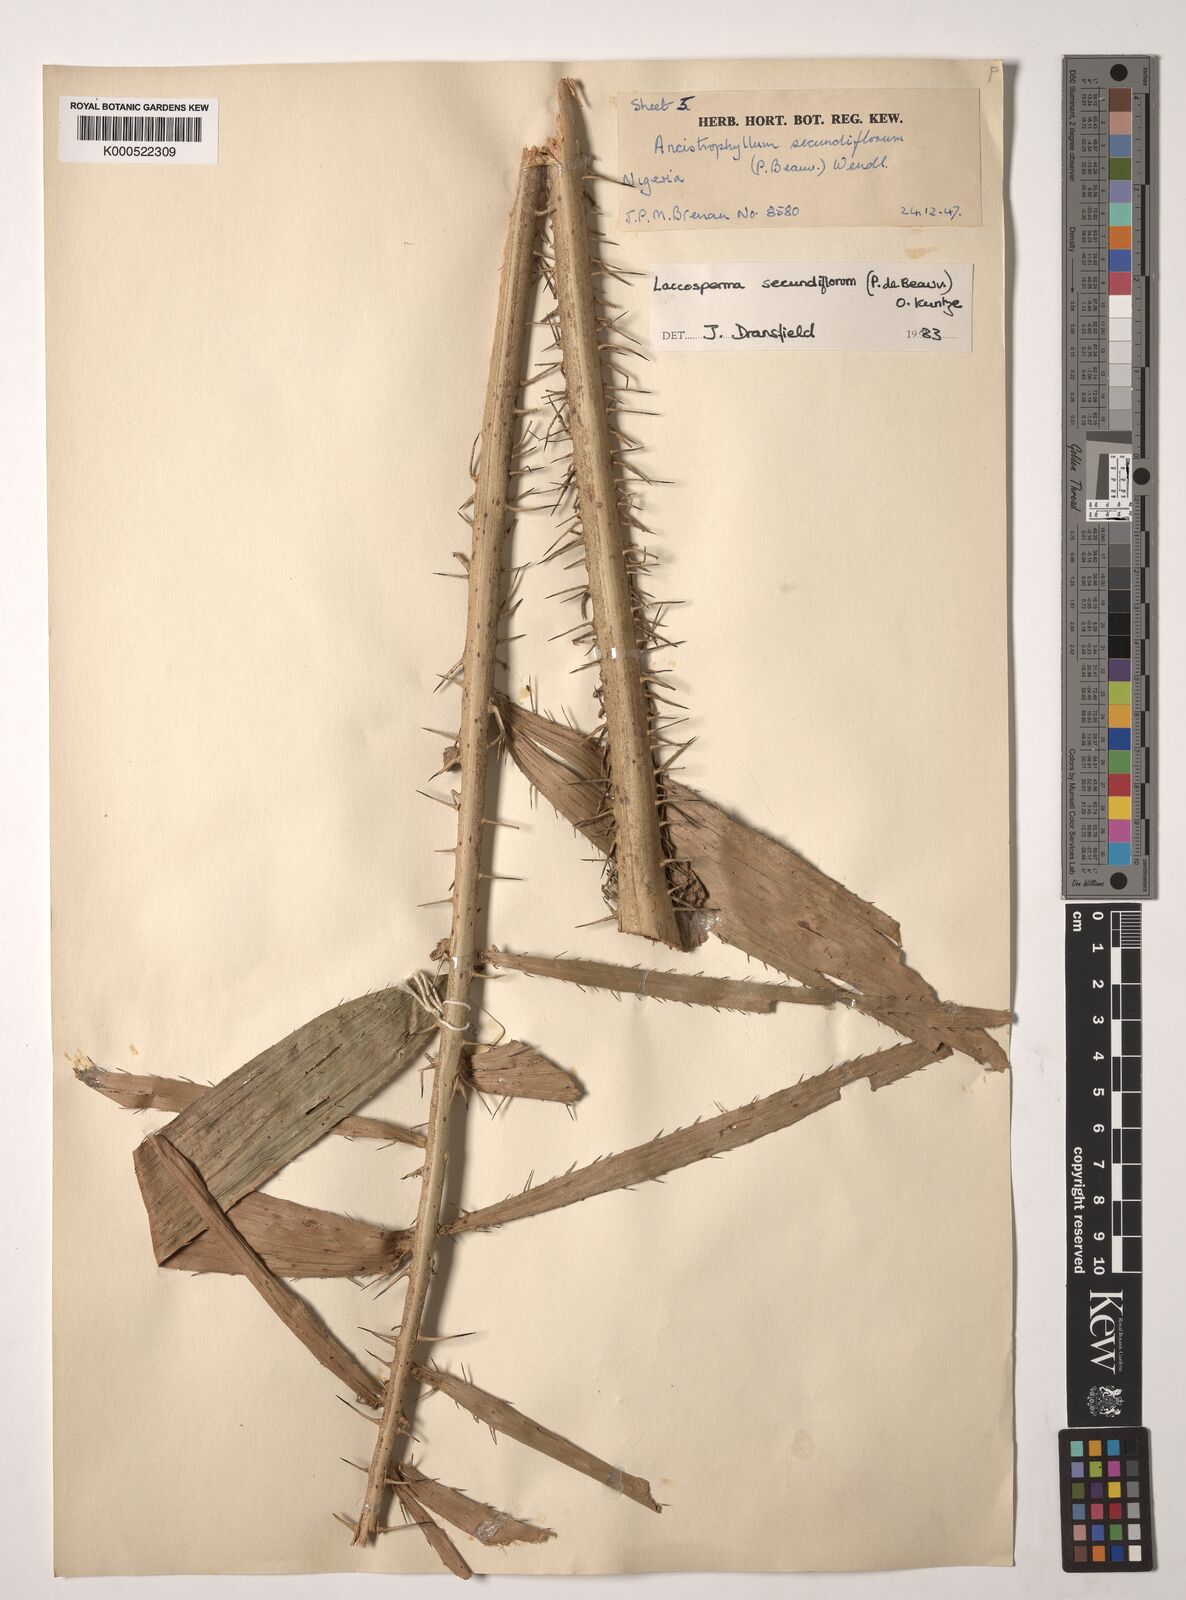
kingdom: Plantae
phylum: Tracheophyta
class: Liliopsida
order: Arecales
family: Arecaceae
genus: Laccosperma
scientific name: Laccosperma secundiflorum
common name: Rattan
